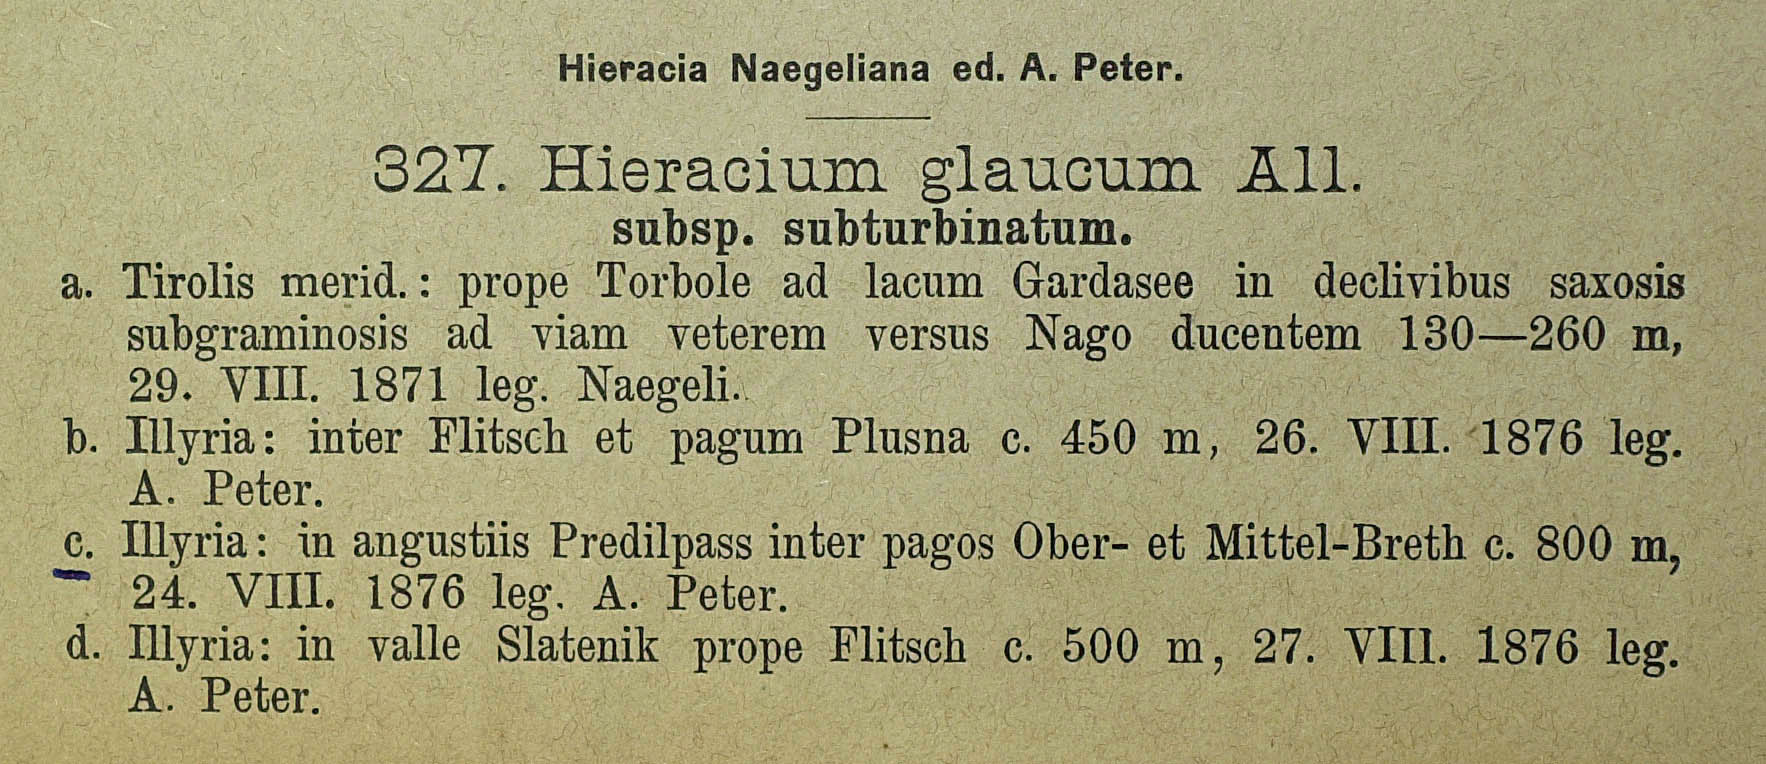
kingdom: Plantae
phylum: Tracheophyta
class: Magnoliopsida
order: Asterales
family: Asteraceae
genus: Hieracium
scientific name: Hieracium glaucum
